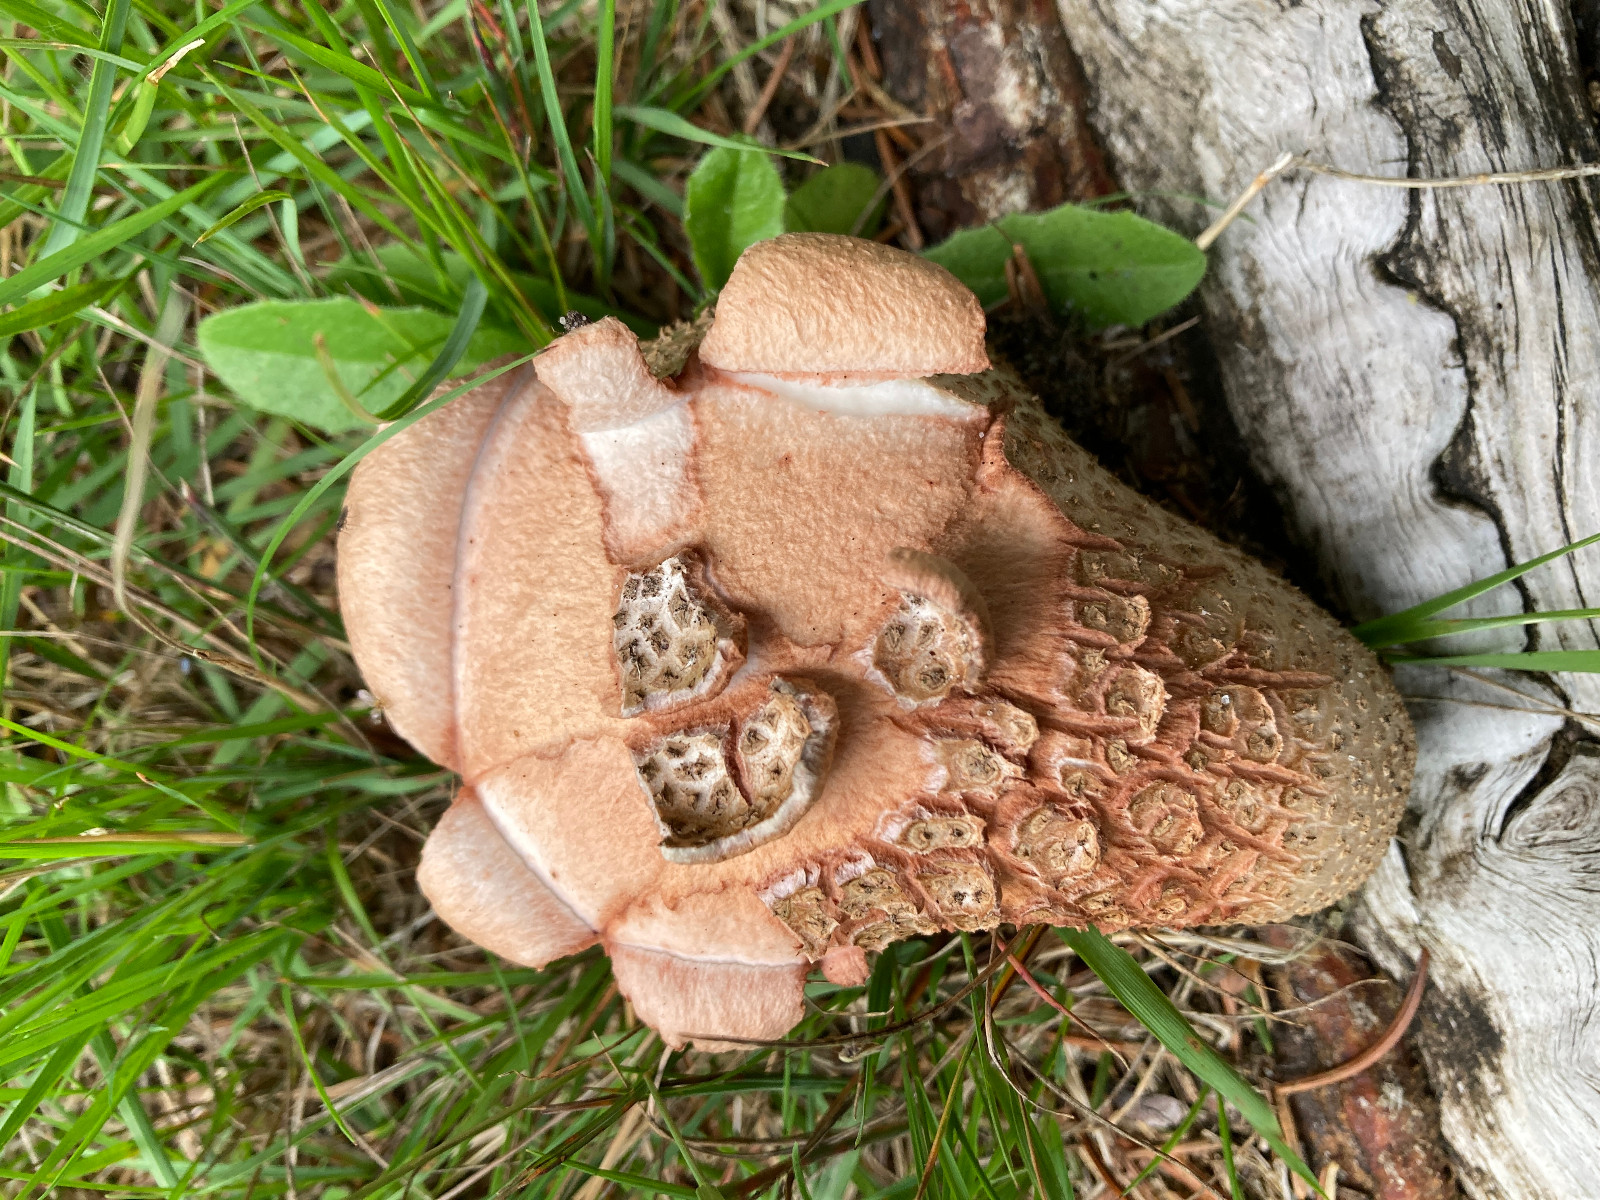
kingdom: Fungi
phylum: Basidiomycota
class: Agaricomycetes
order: Agaricales
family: Amanitaceae
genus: Amanita
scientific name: Amanita rubescens
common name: rødmende fluesvamp
